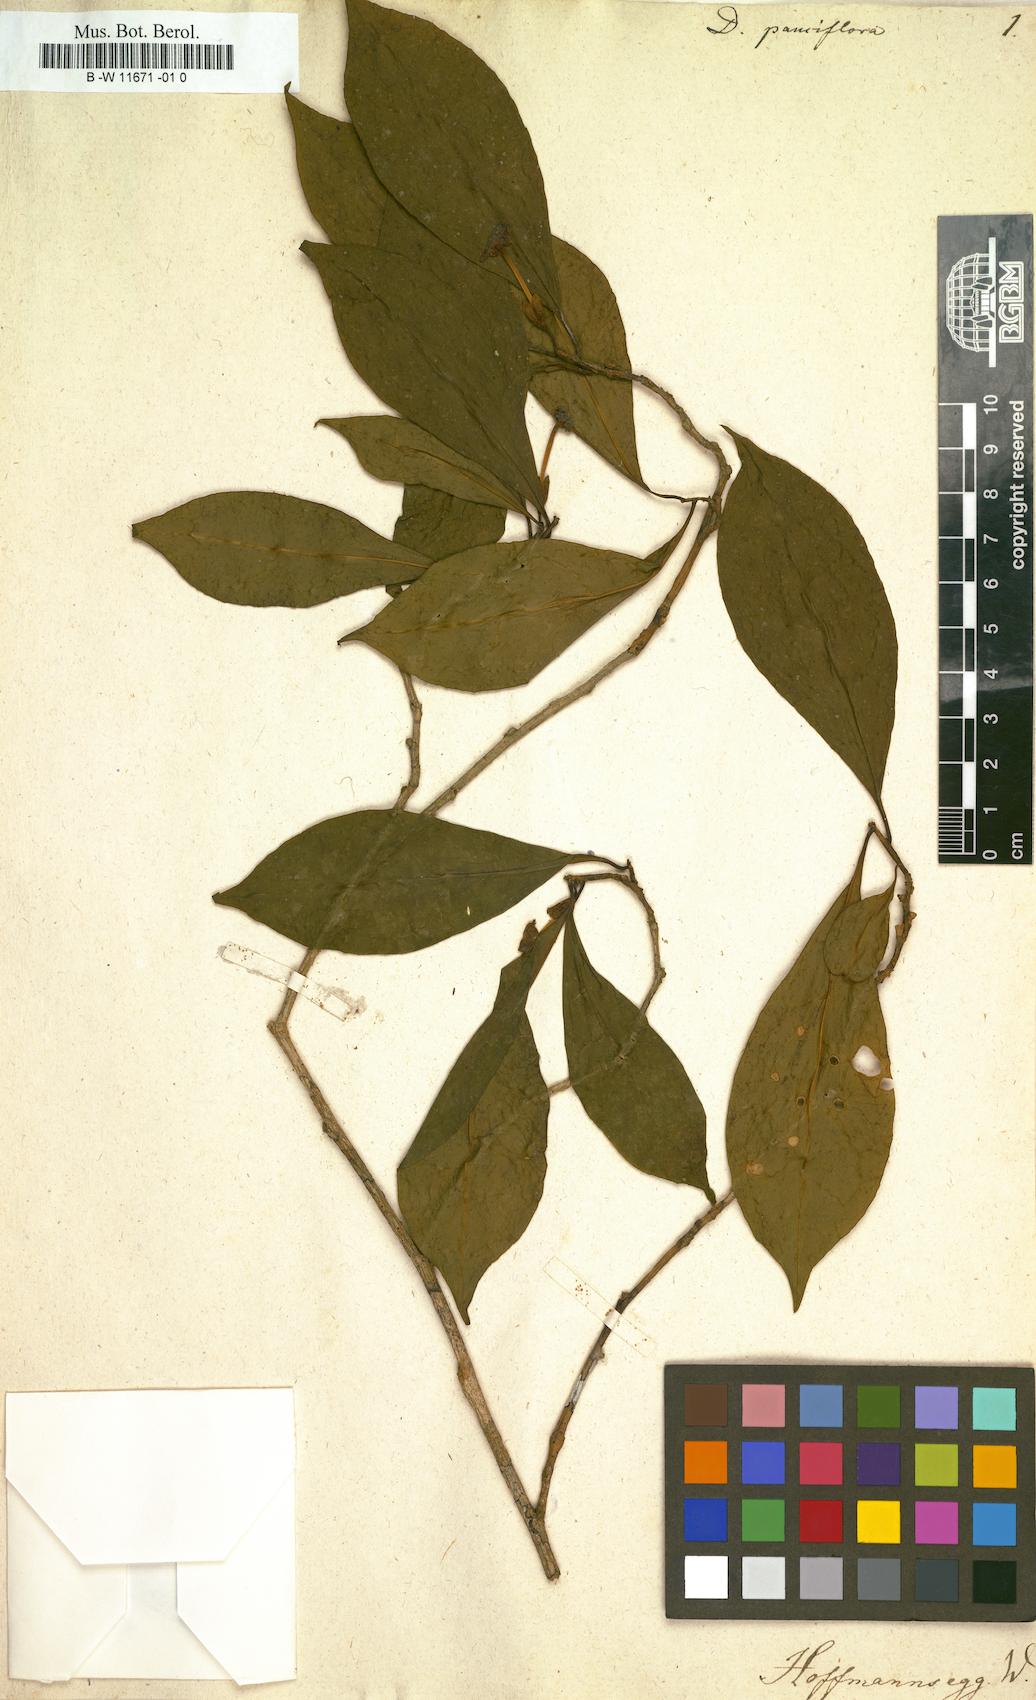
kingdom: Plantae
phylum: Tracheophyta
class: Magnoliopsida
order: Lamiales
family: Verbenaceae
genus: Duranta
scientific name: Duranta
